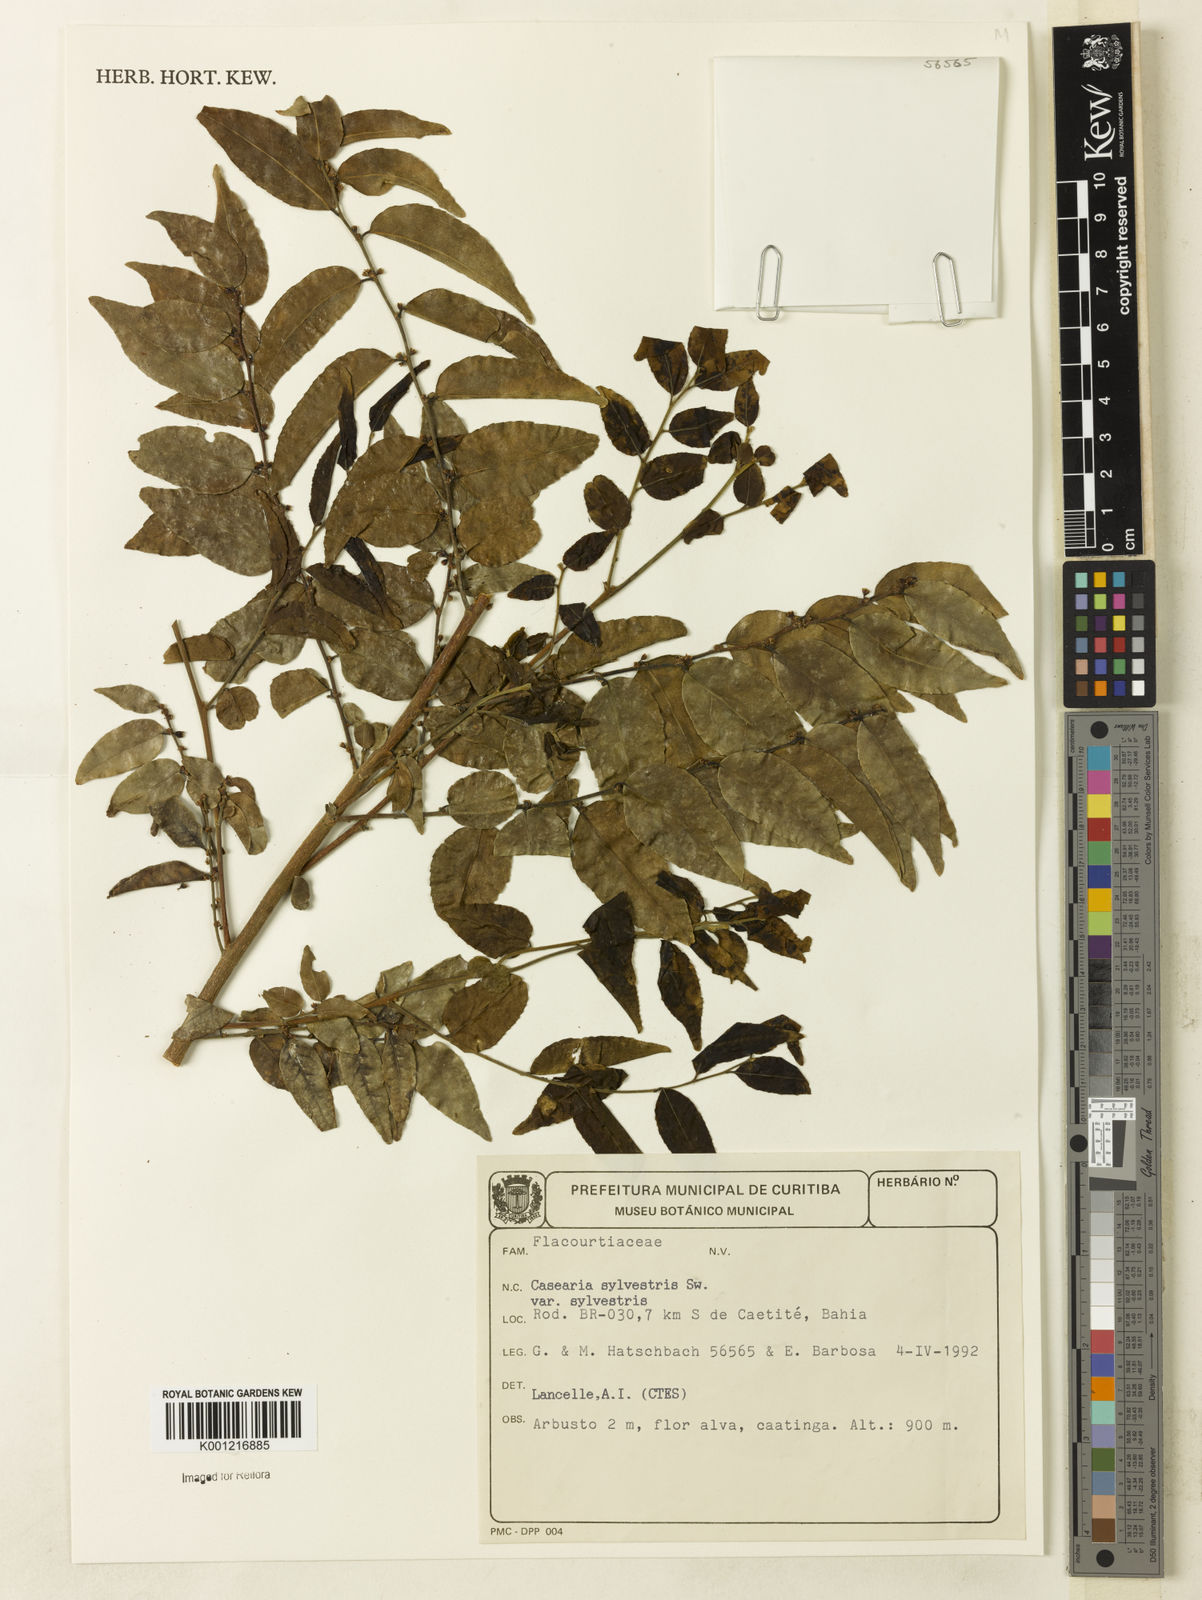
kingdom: Plantae
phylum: Tracheophyta
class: Magnoliopsida
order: Malpighiales
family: Salicaceae
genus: Casearia
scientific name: Casearia sylvestris
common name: Wild sage
